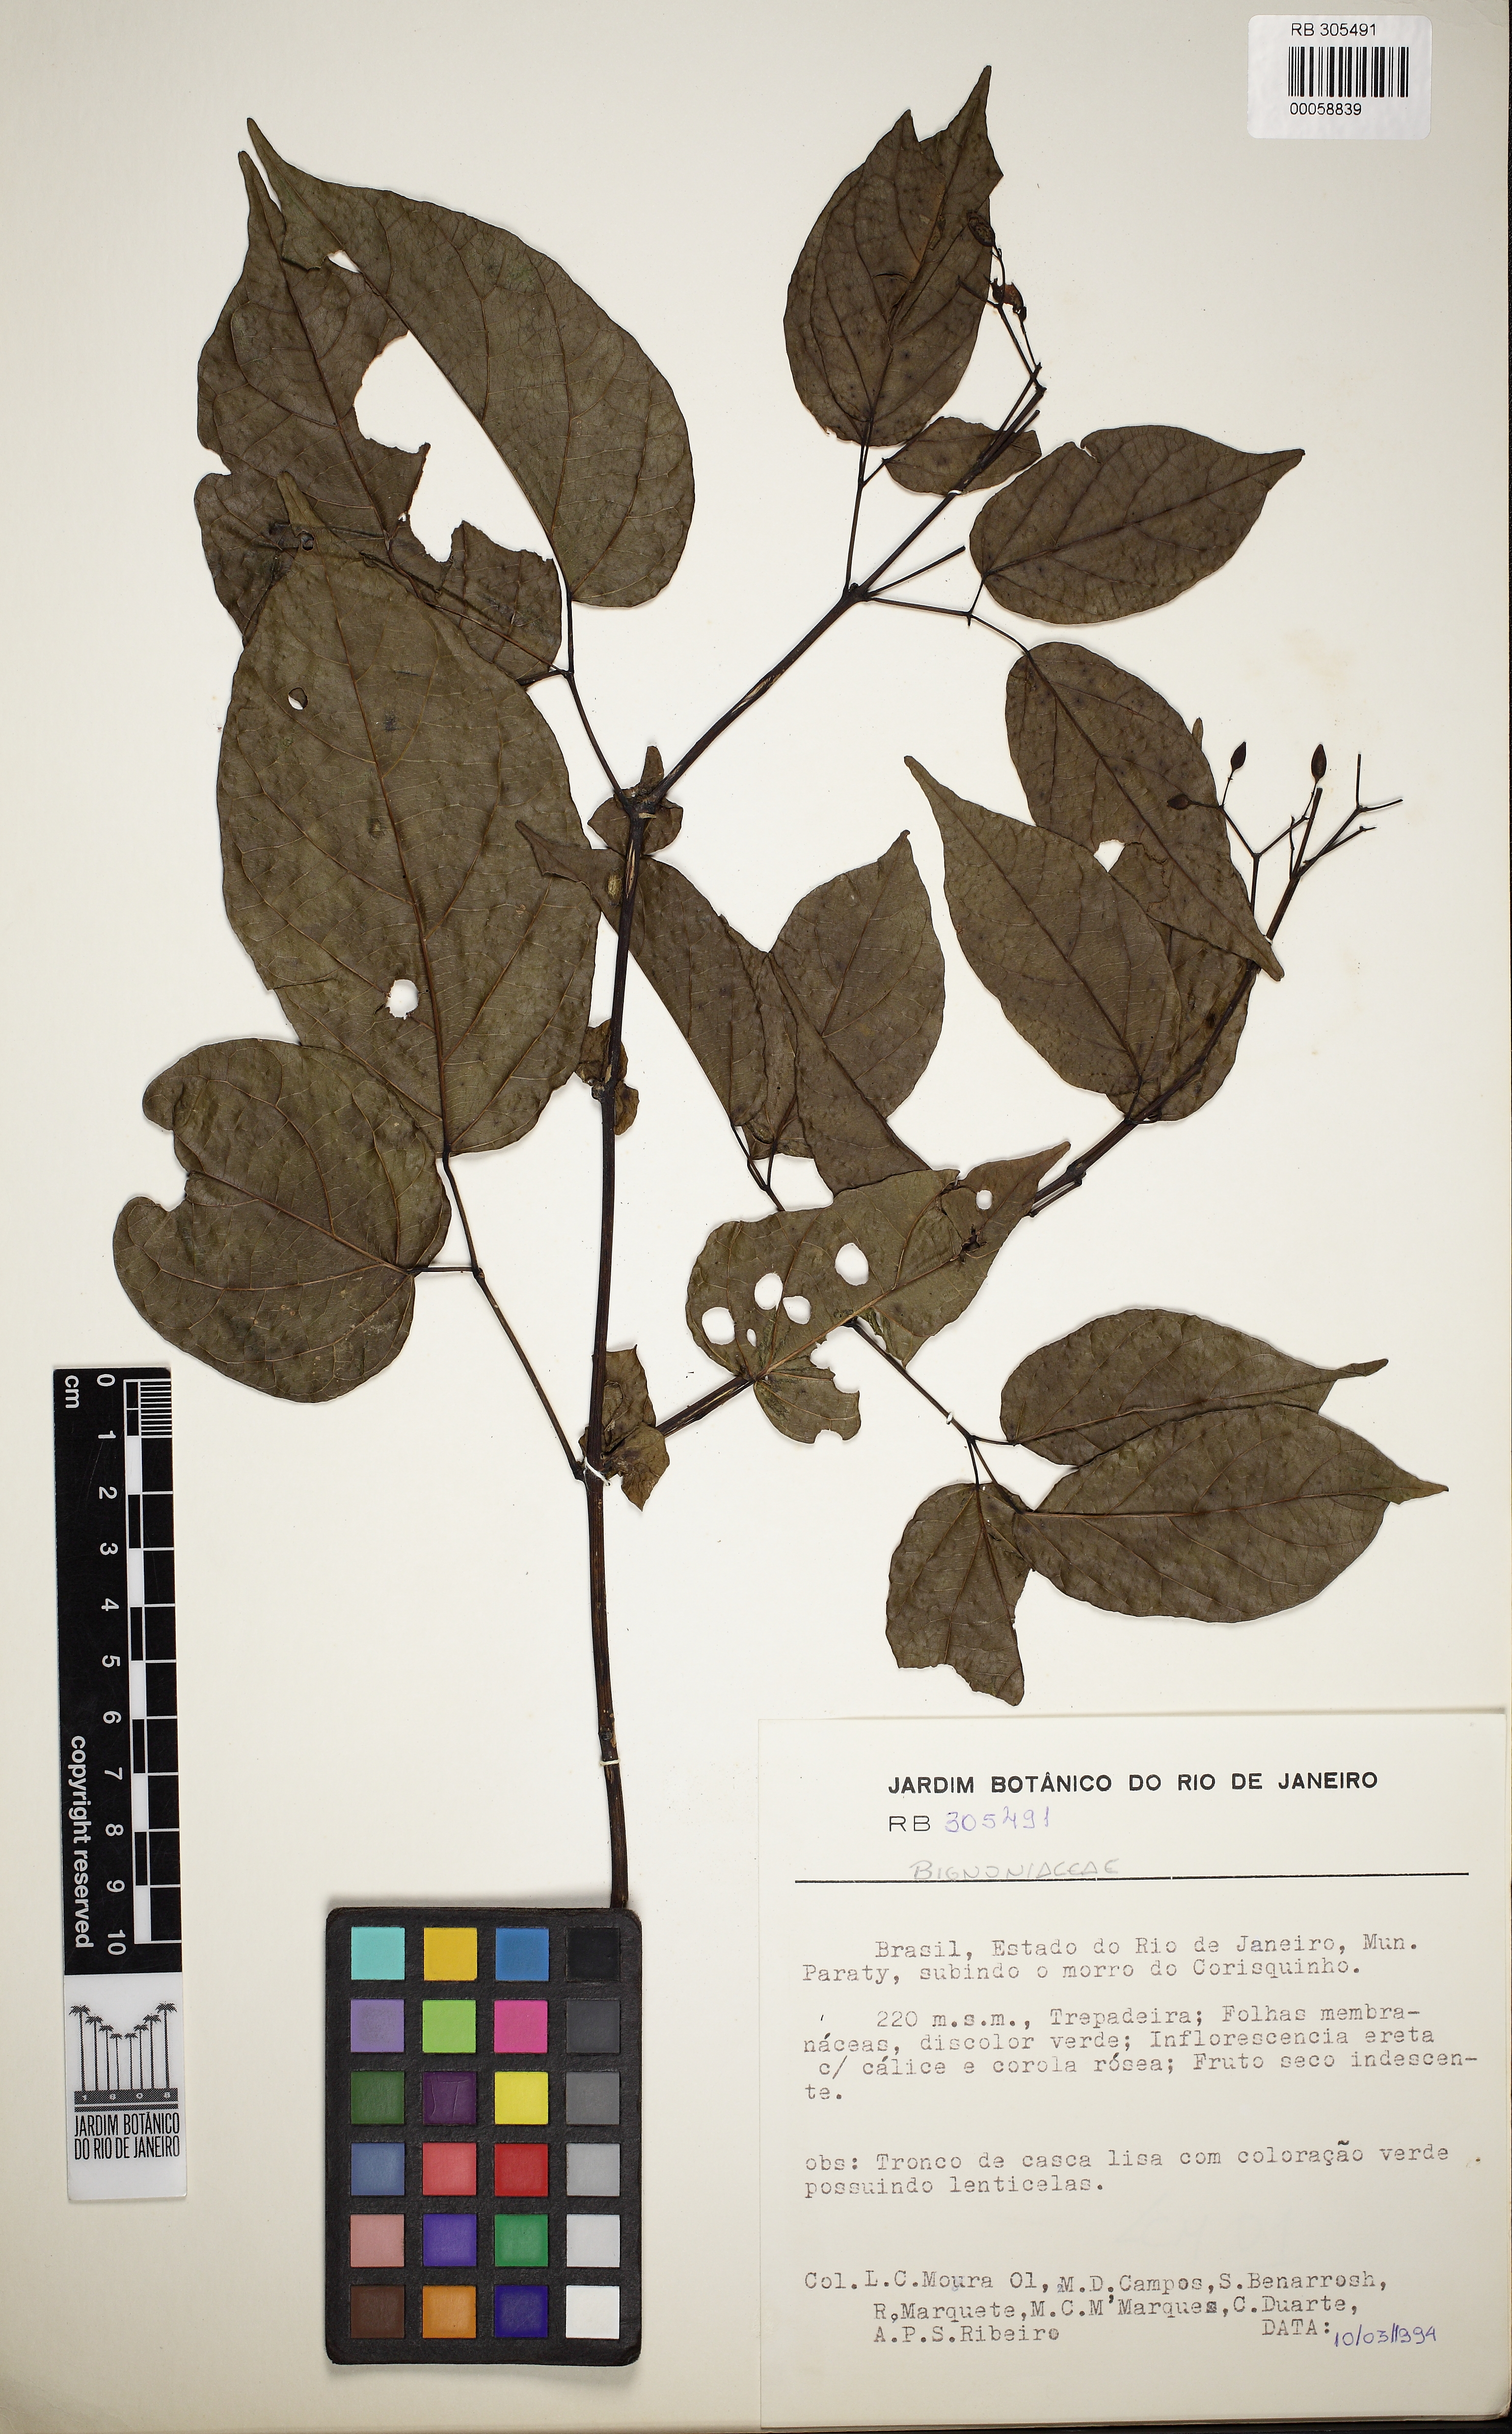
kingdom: Plantae
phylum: Tracheophyta
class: Magnoliopsida
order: Lamiales
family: Bignoniaceae
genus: Tanaecium
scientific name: Tanaecium selloi
